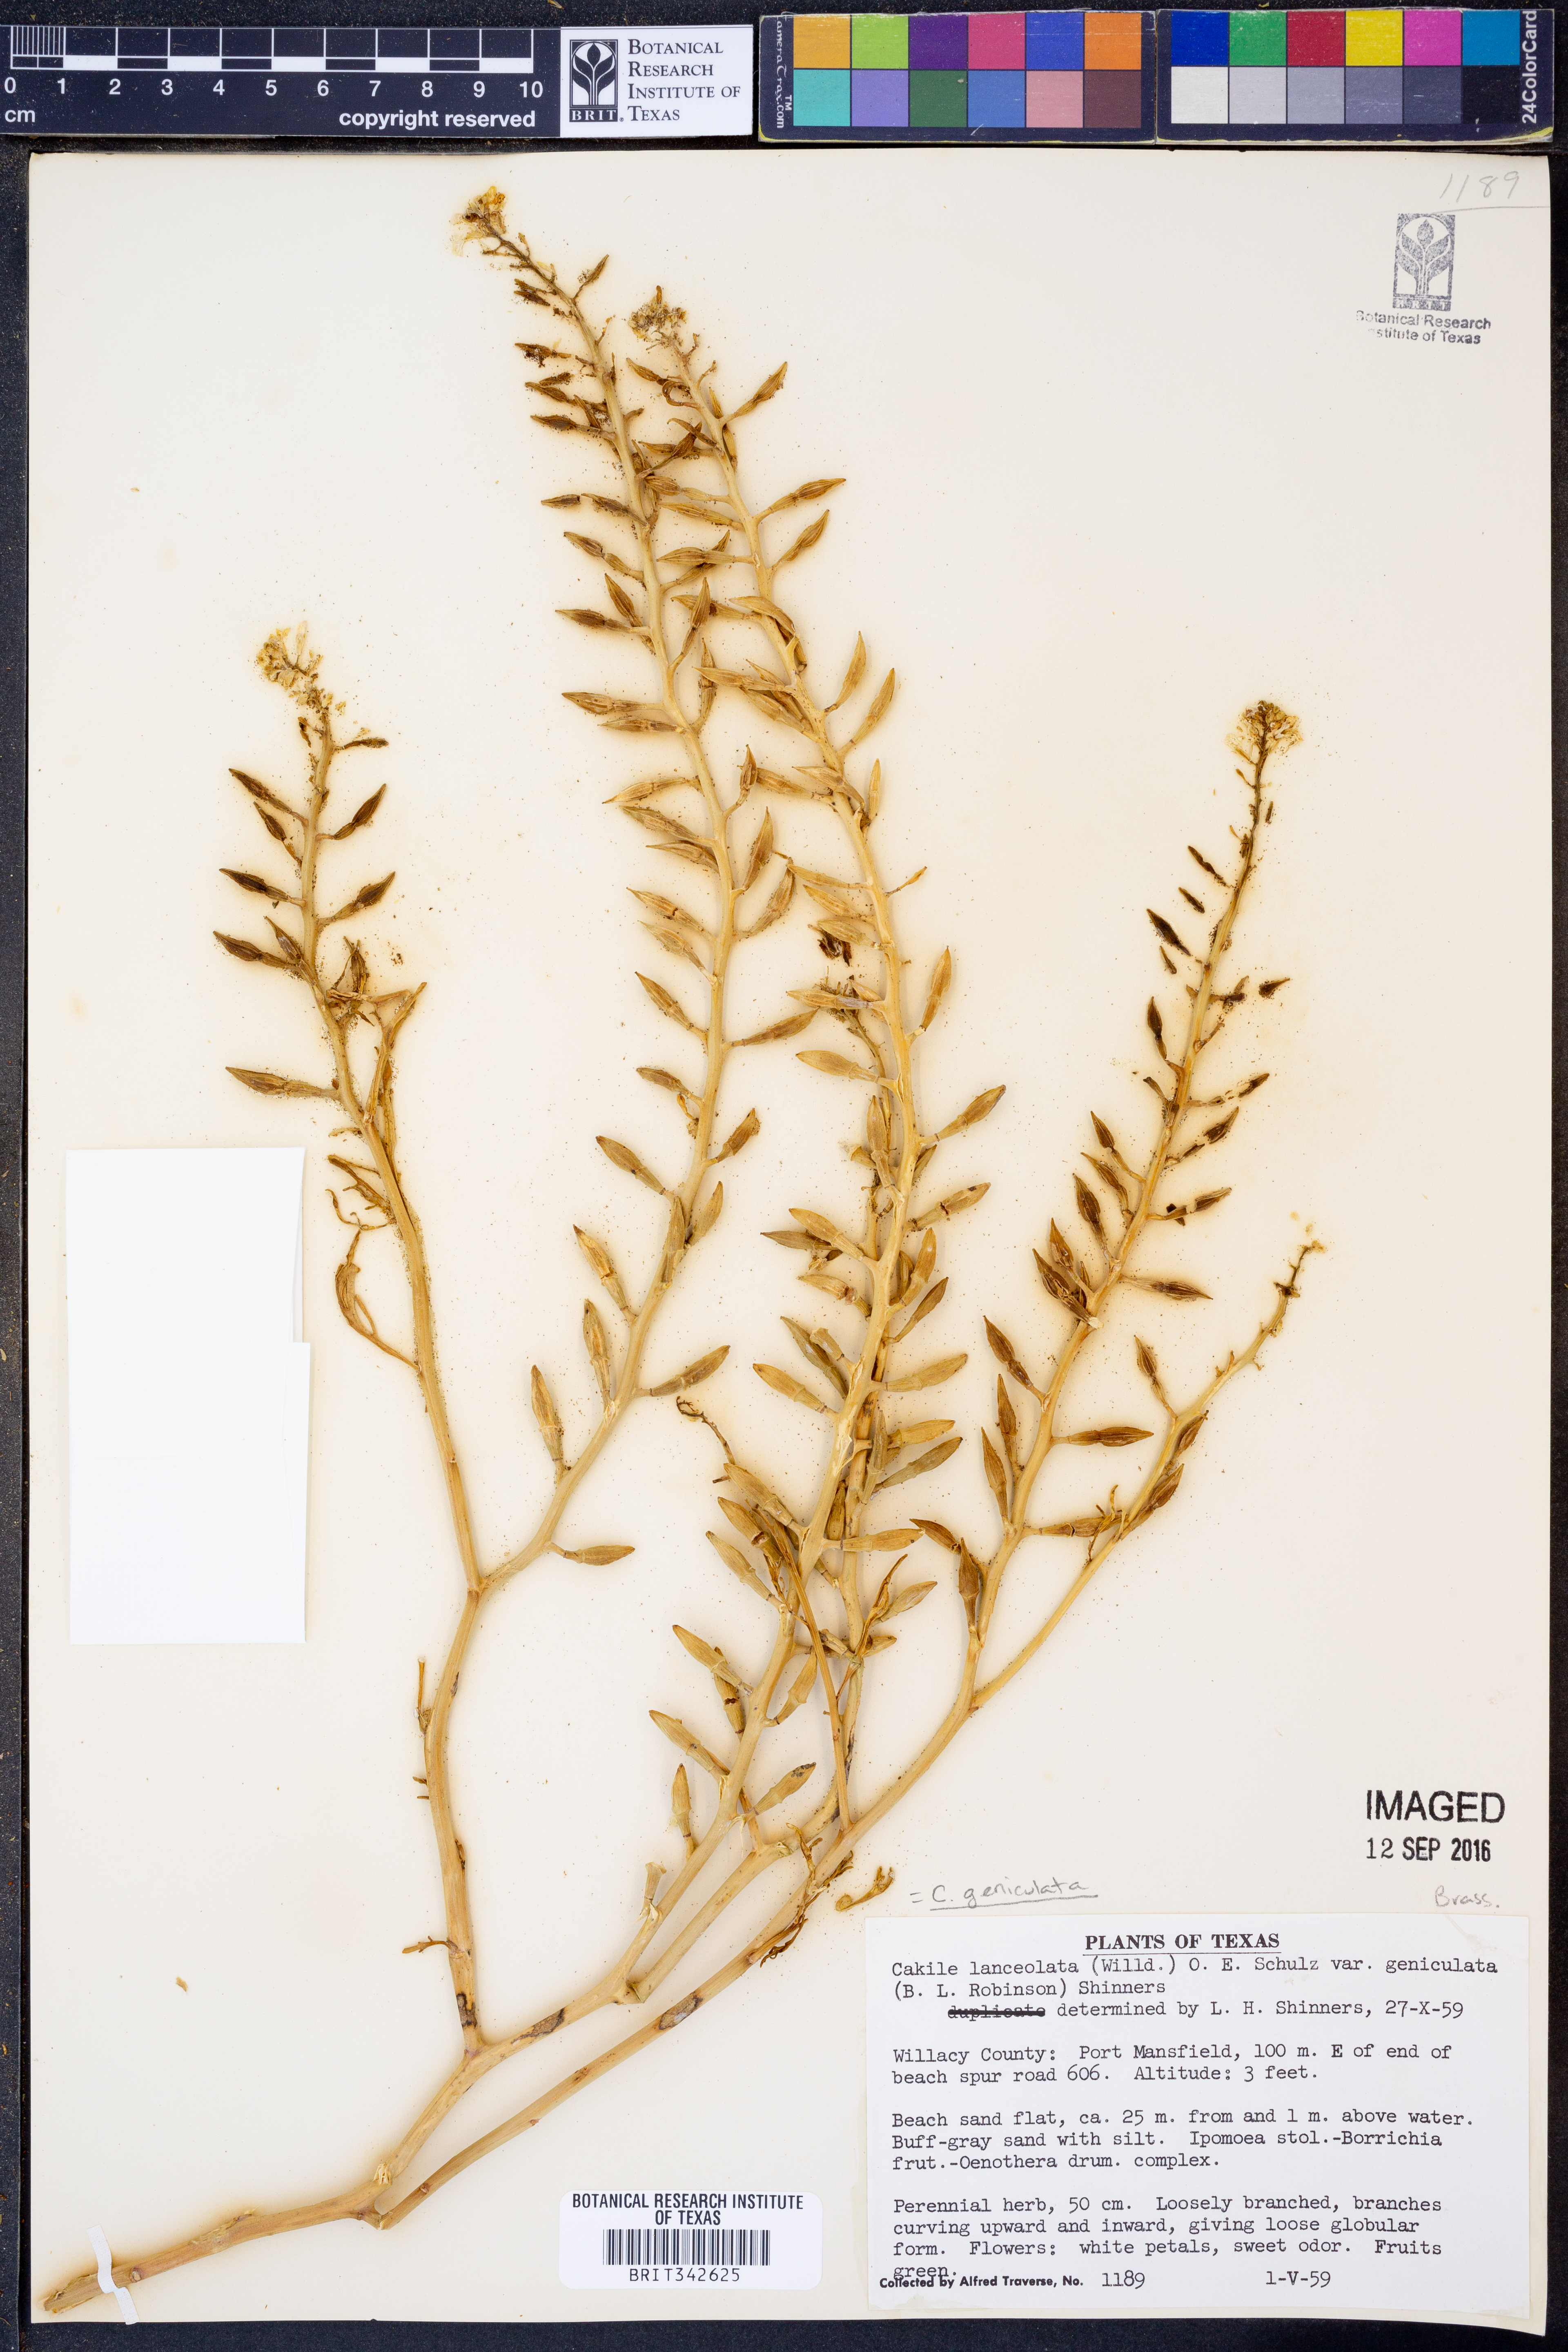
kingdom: Plantae
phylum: Tracheophyta
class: Magnoliopsida
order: Brassicales
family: Brassicaceae
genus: Cakile
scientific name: Cakile geniculata
